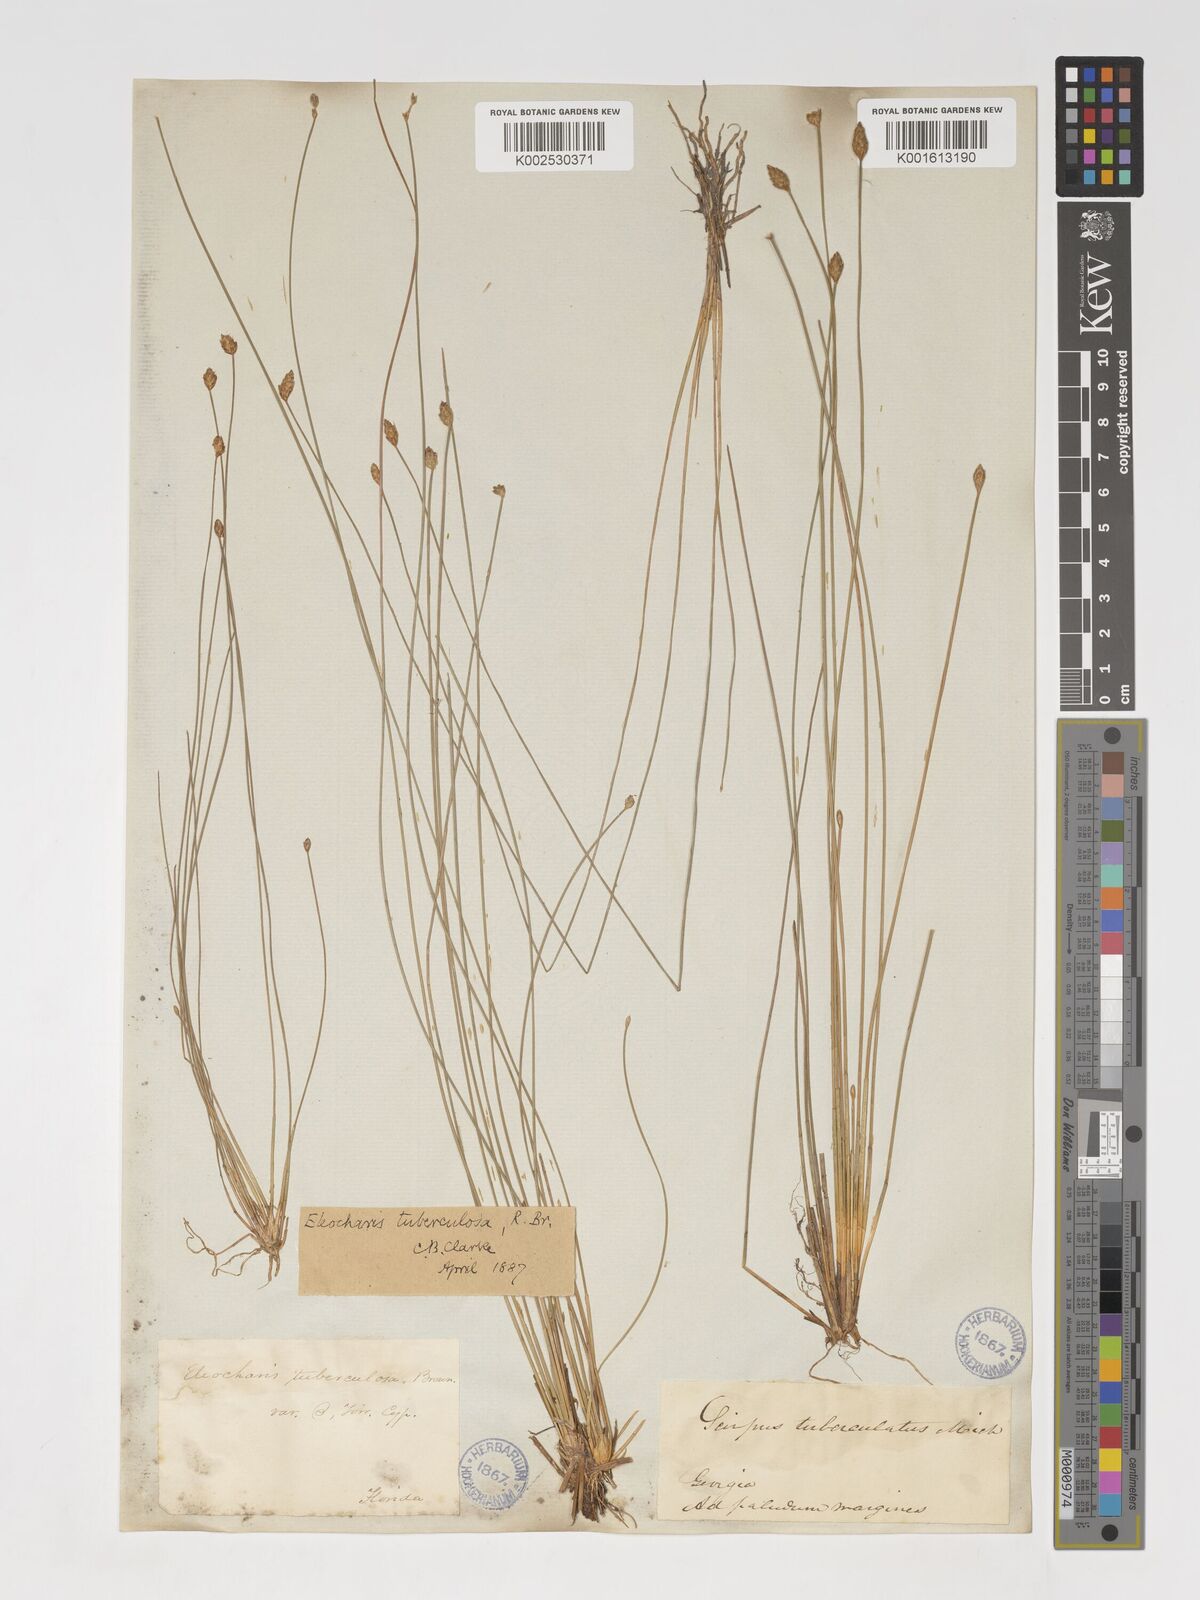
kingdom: Plantae
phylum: Tracheophyta
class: Liliopsida
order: Poales
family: Cyperaceae
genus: Eleocharis
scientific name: Eleocharis tuberculosa
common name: Cone-cup spikerush
